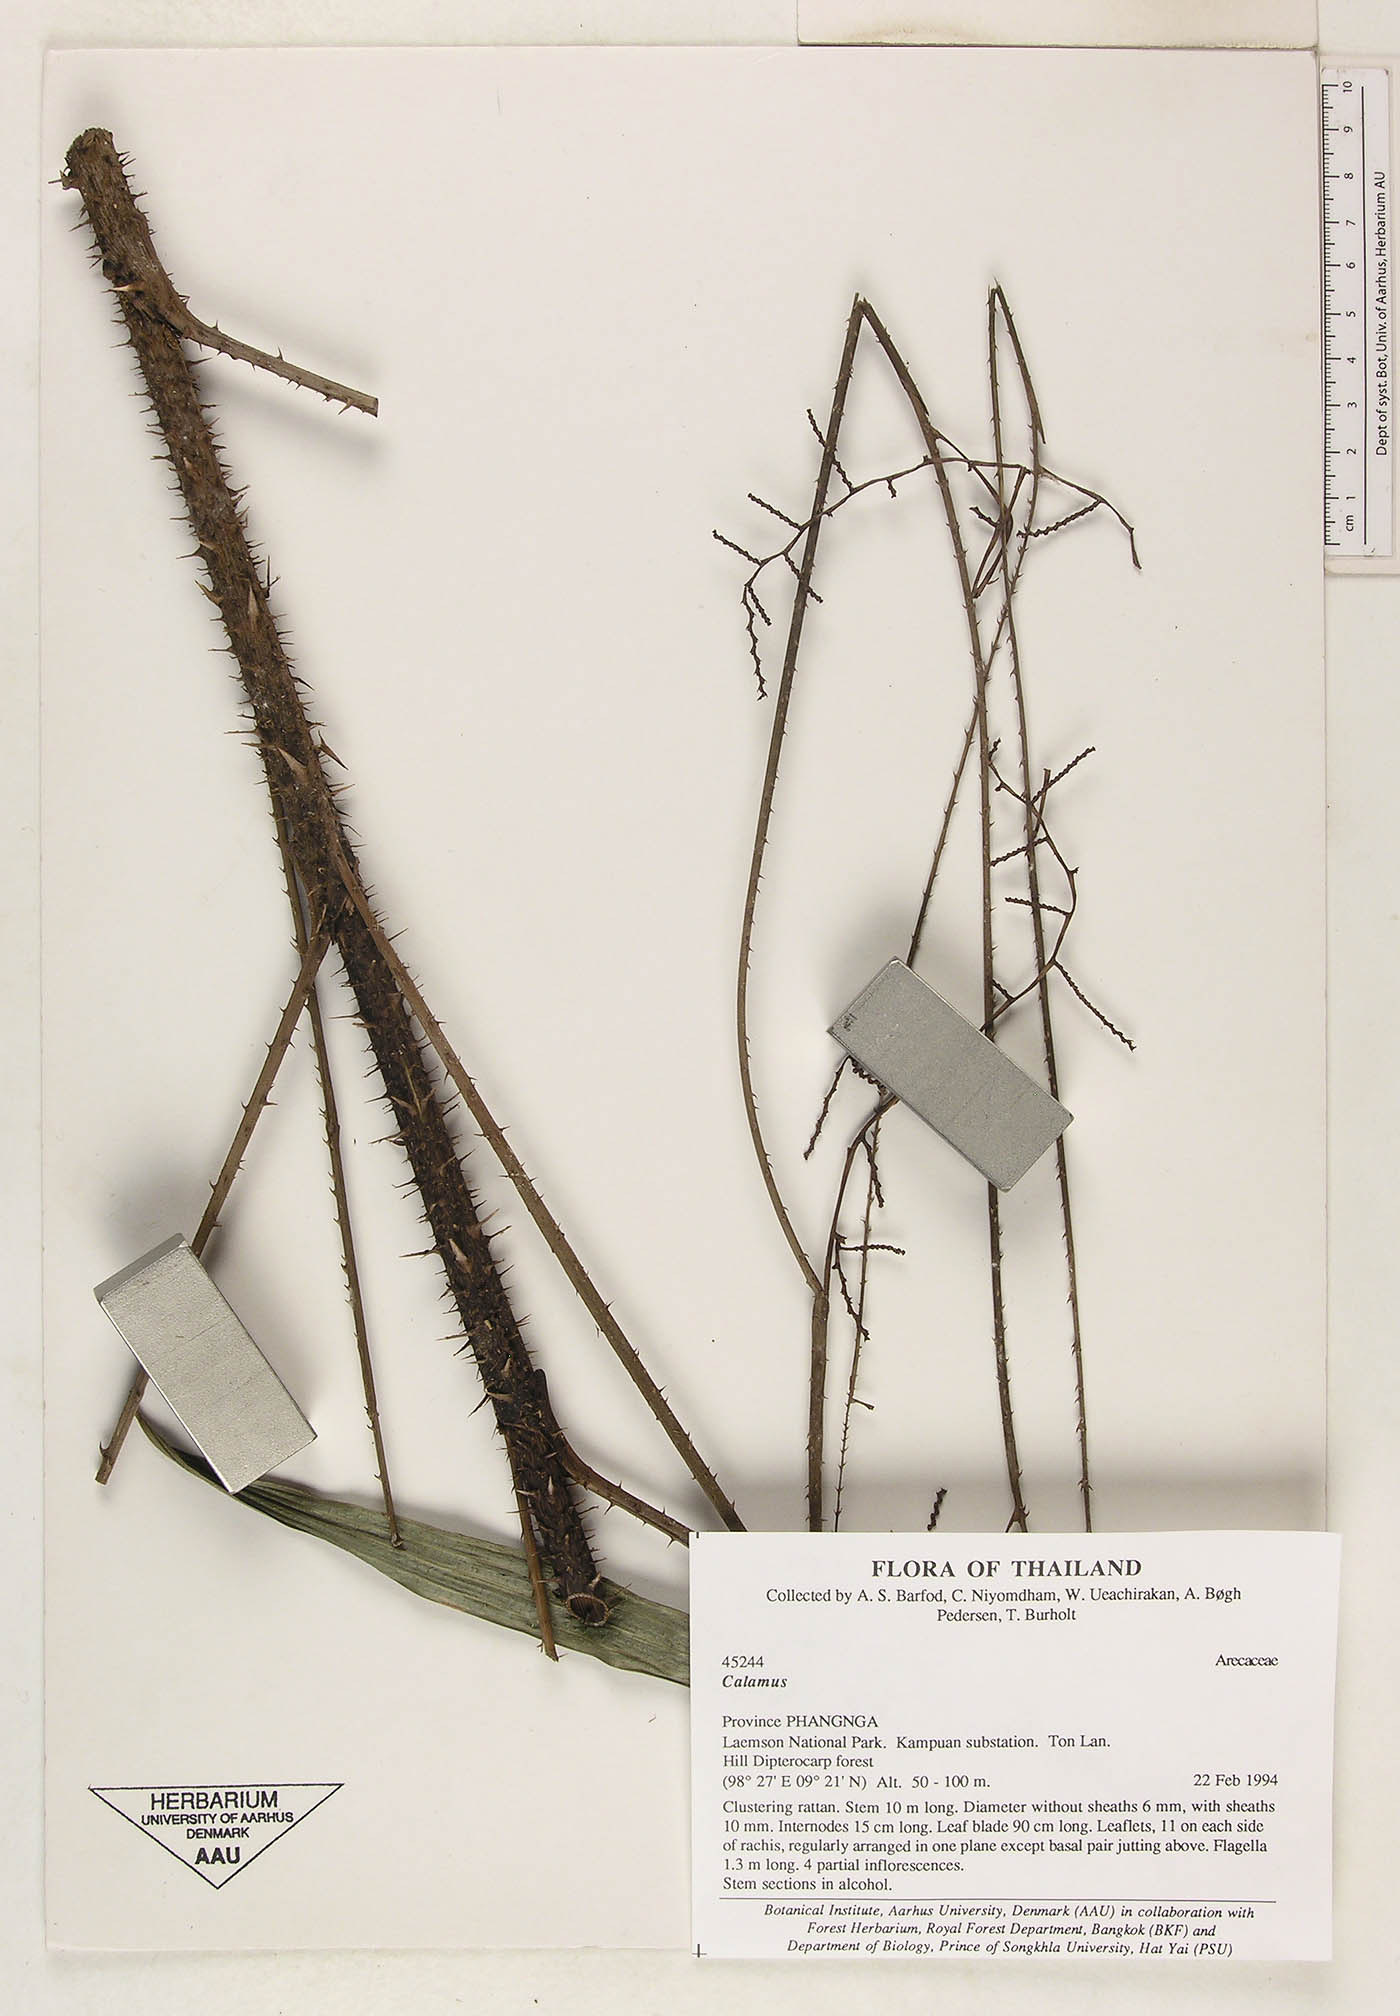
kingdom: Plantae
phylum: Tracheophyta
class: Liliopsida
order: Arecales
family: Arecaceae
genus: Calamus
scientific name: Calamus micranthus
